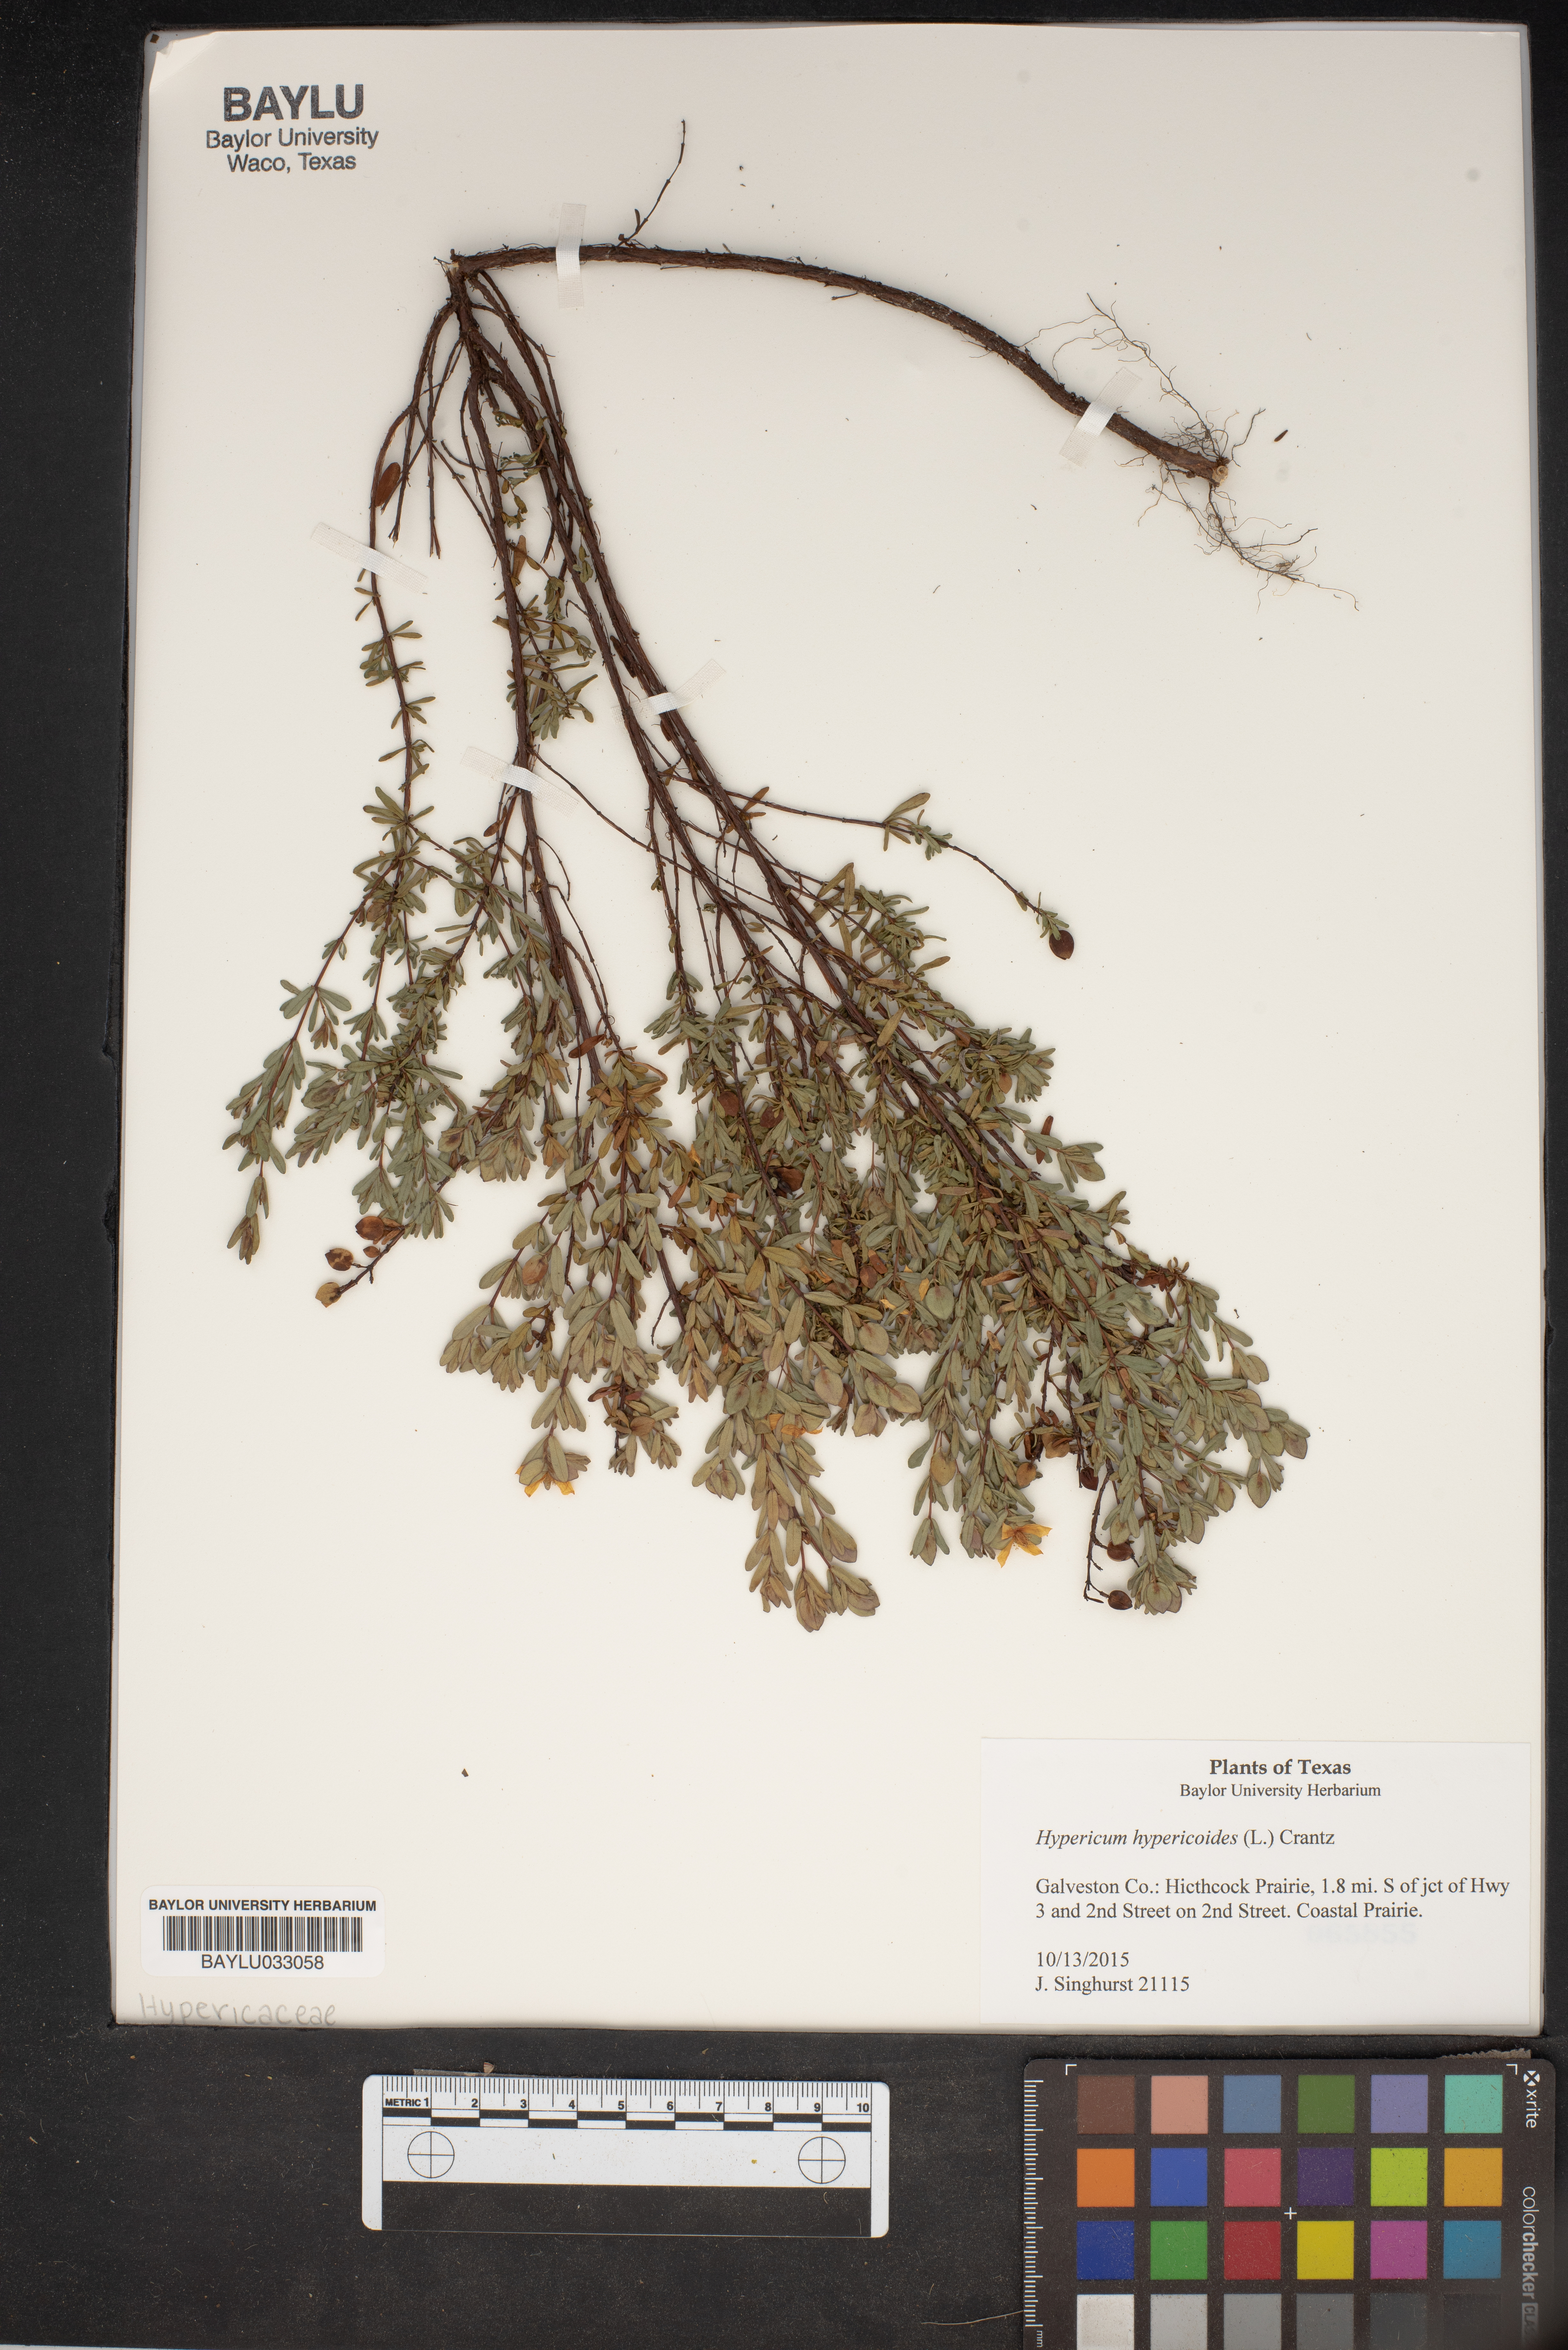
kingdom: Plantae
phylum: Tracheophyta
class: Magnoliopsida
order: Malpighiales
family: Hypericaceae
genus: Hypericum
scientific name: Hypericum hypericoides
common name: St. andrew's cross
